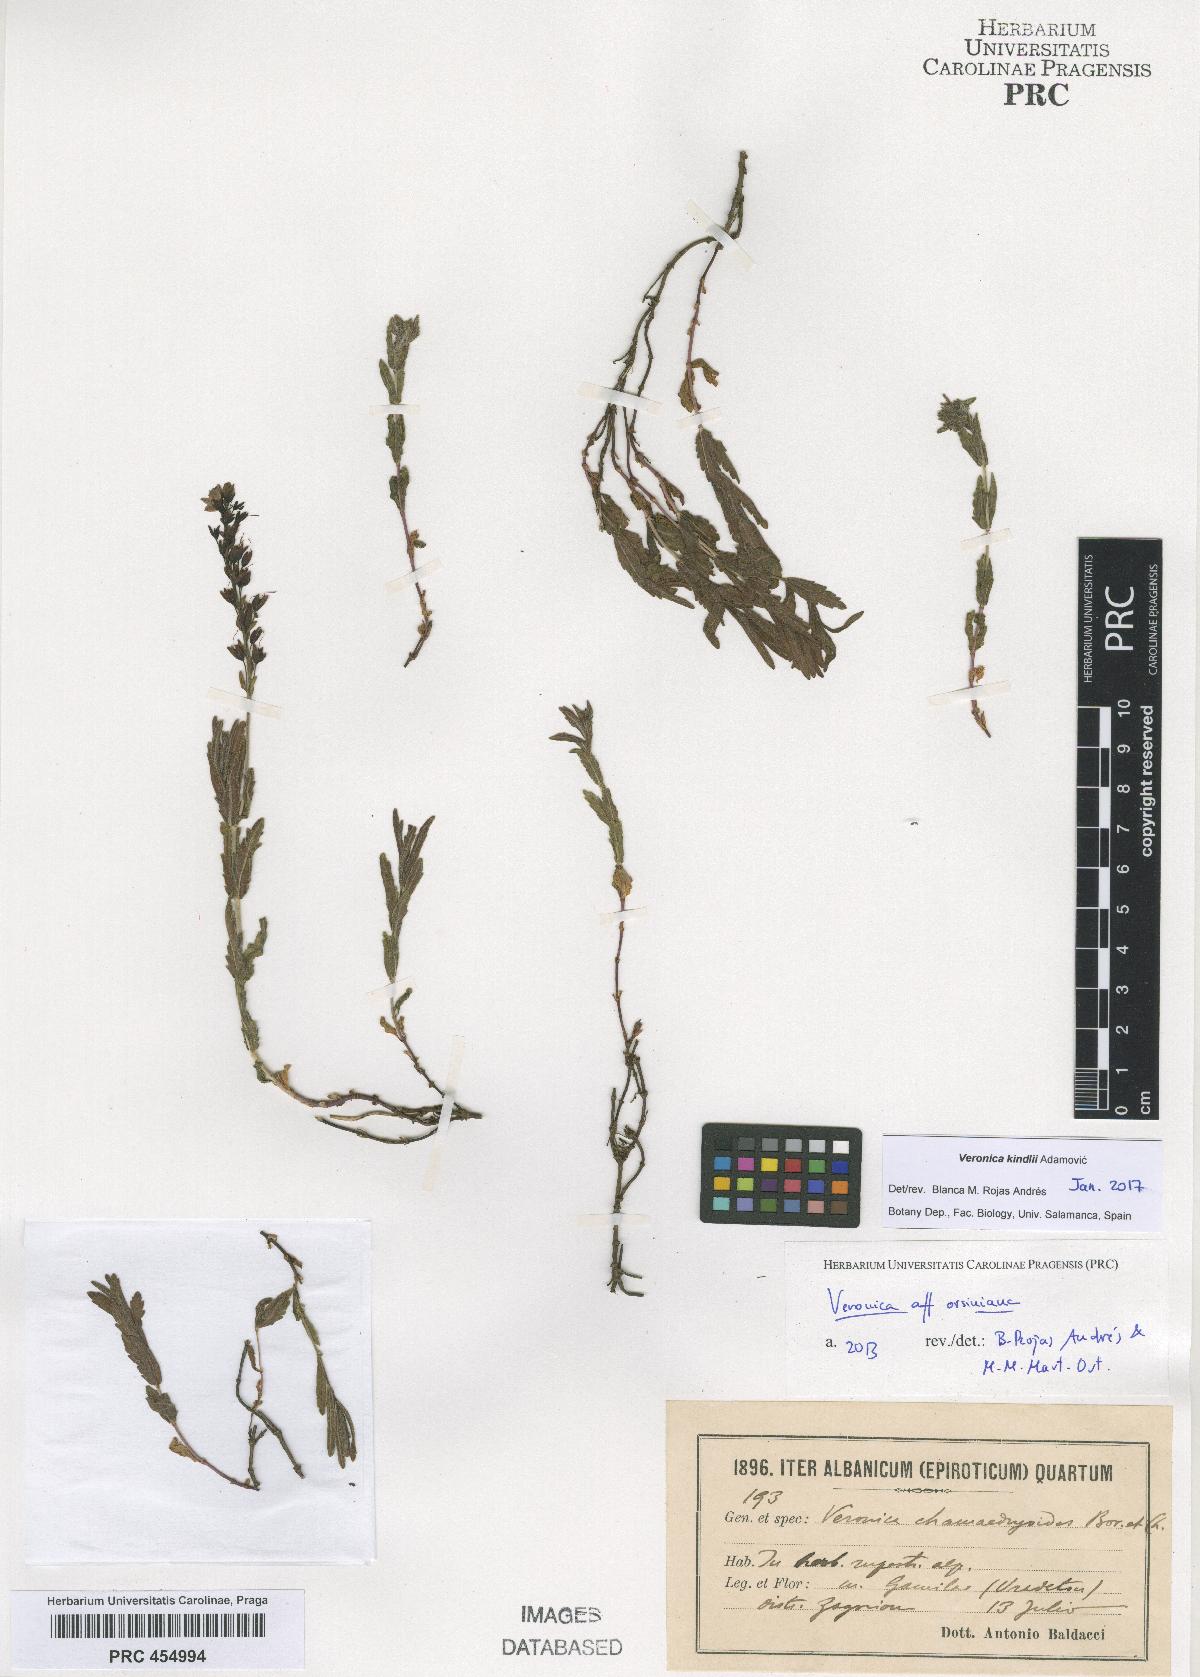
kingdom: Plantae
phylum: Tracheophyta
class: Magnoliopsida
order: Lamiales
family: Plantaginaceae
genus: Veronica
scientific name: Veronica orsiniana
